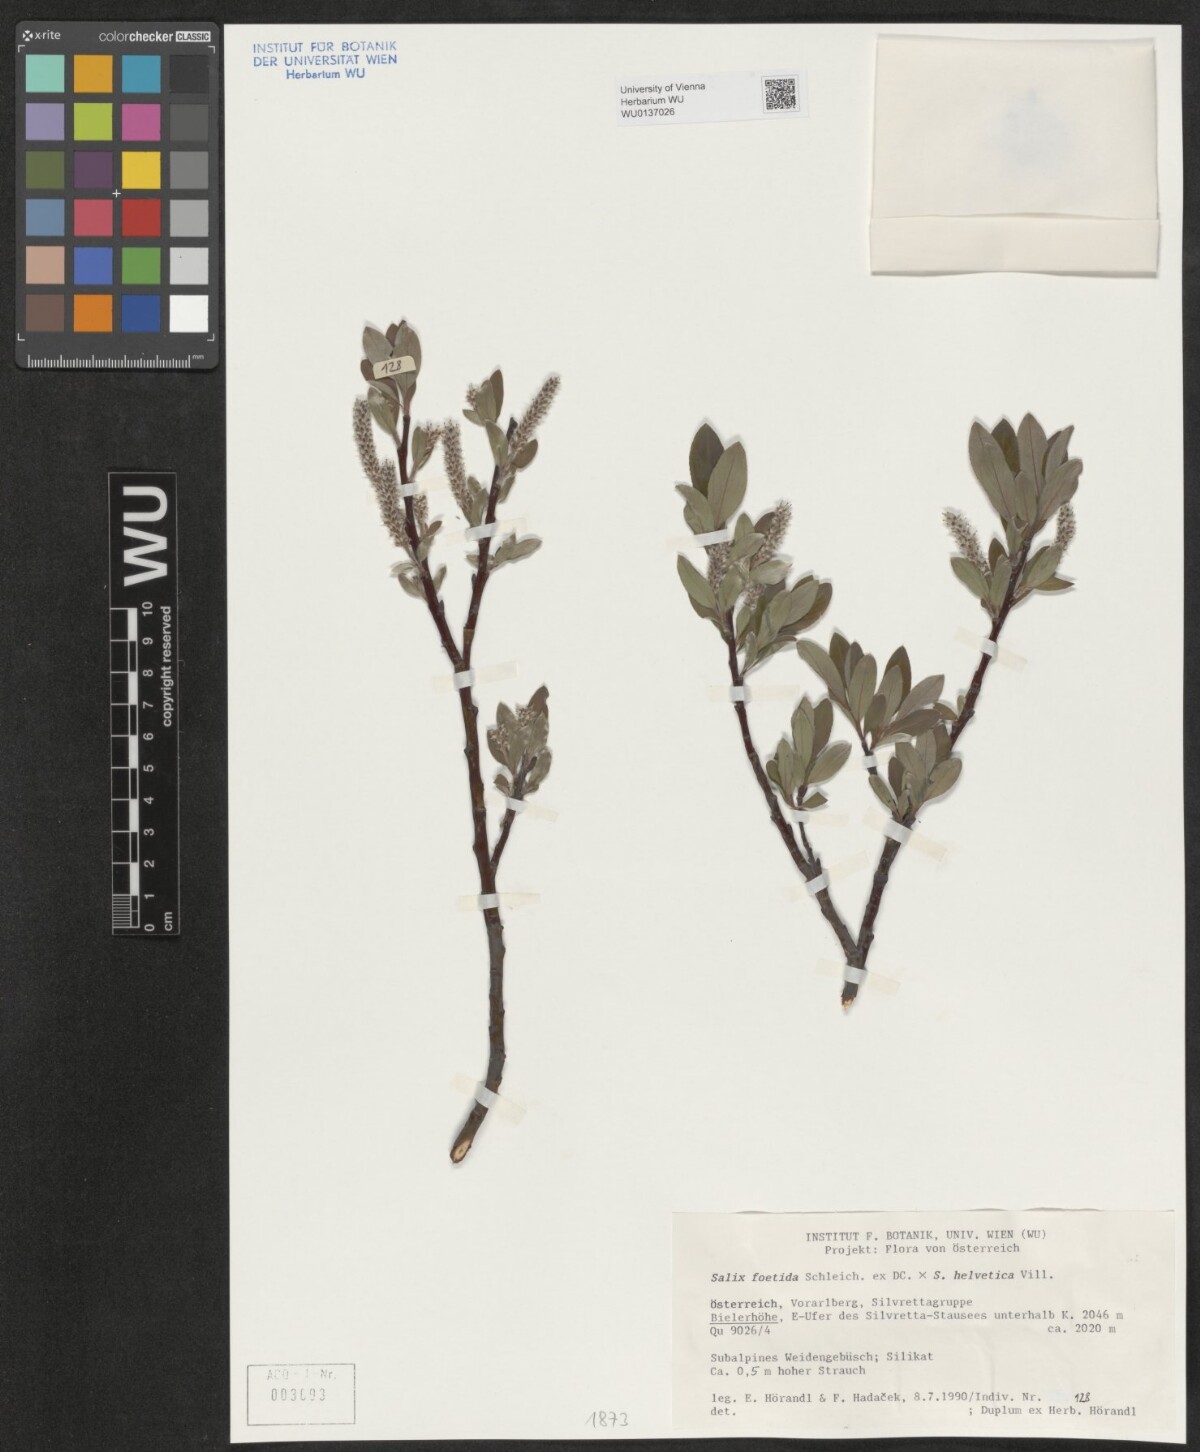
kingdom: Plantae
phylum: Tracheophyta
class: Magnoliopsida
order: Malpighiales
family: Salicaceae
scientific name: Salicaceae
